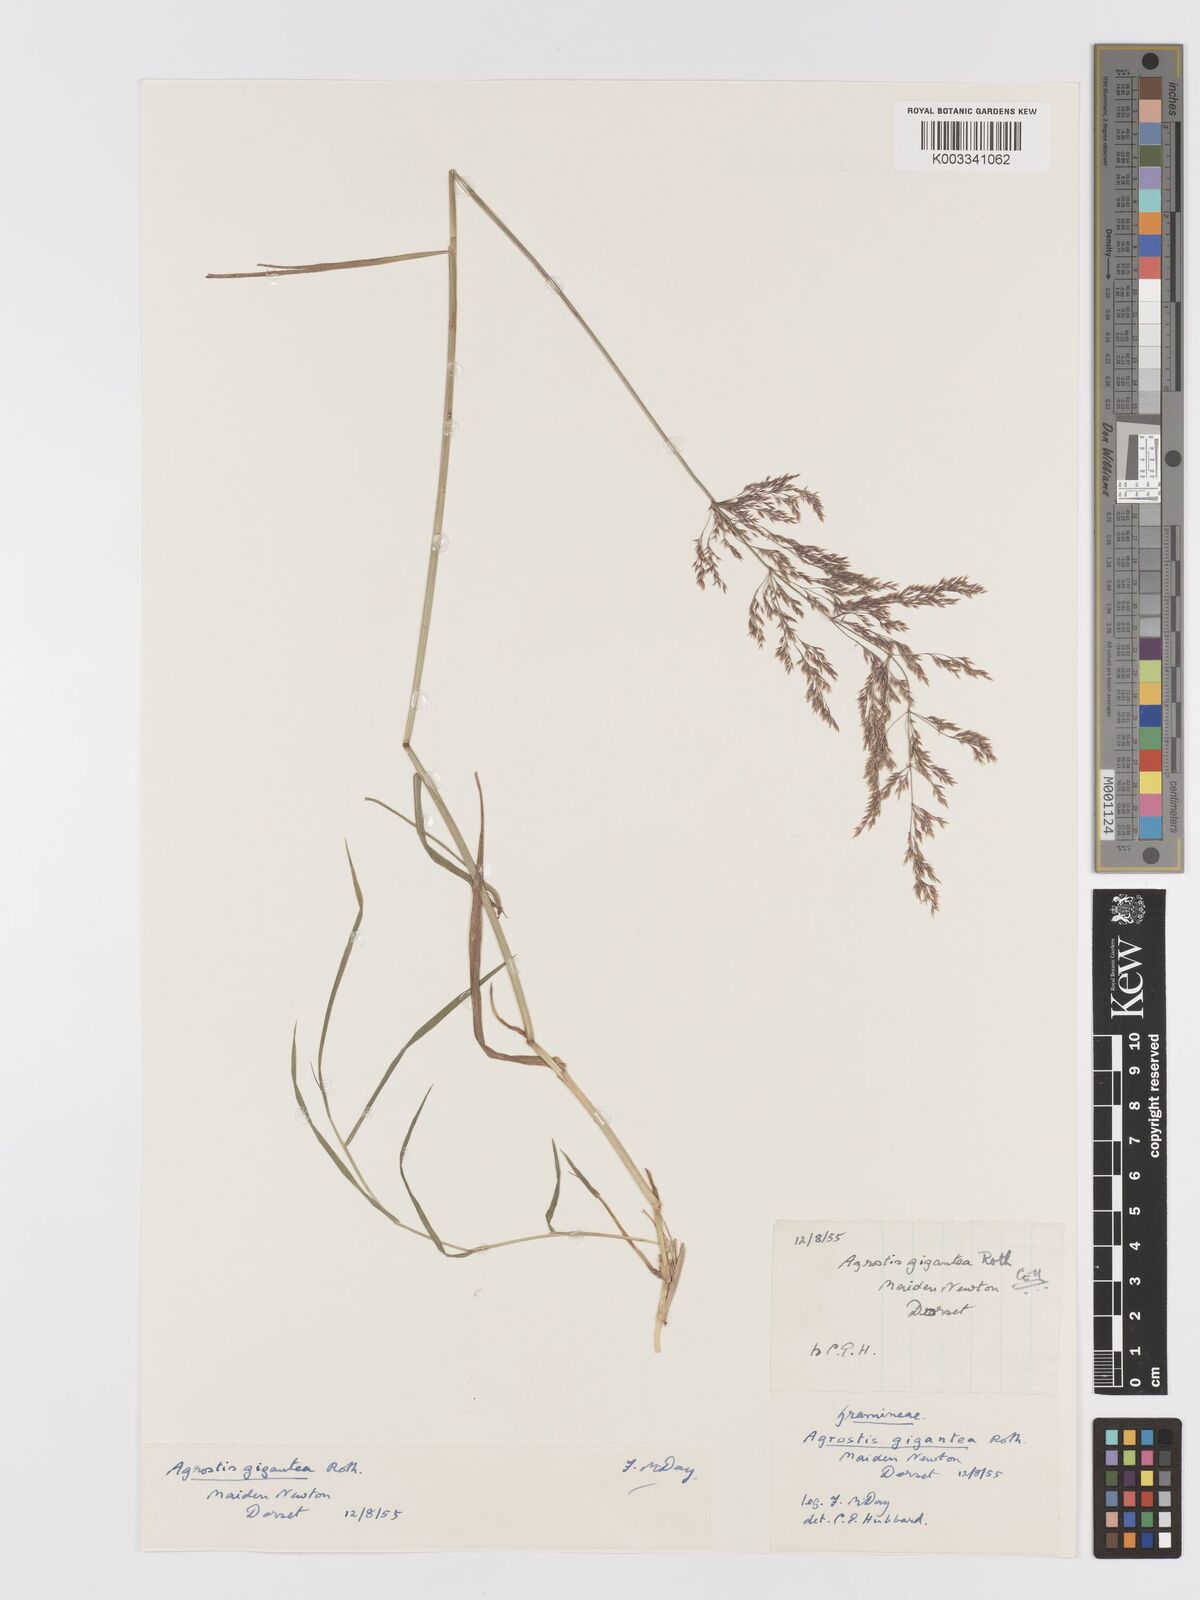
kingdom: Plantae
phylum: Tracheophyta
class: Liliopsida
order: Poales
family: Poaceae
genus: Agrostis
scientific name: Agrostis gigantea
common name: Black bent
